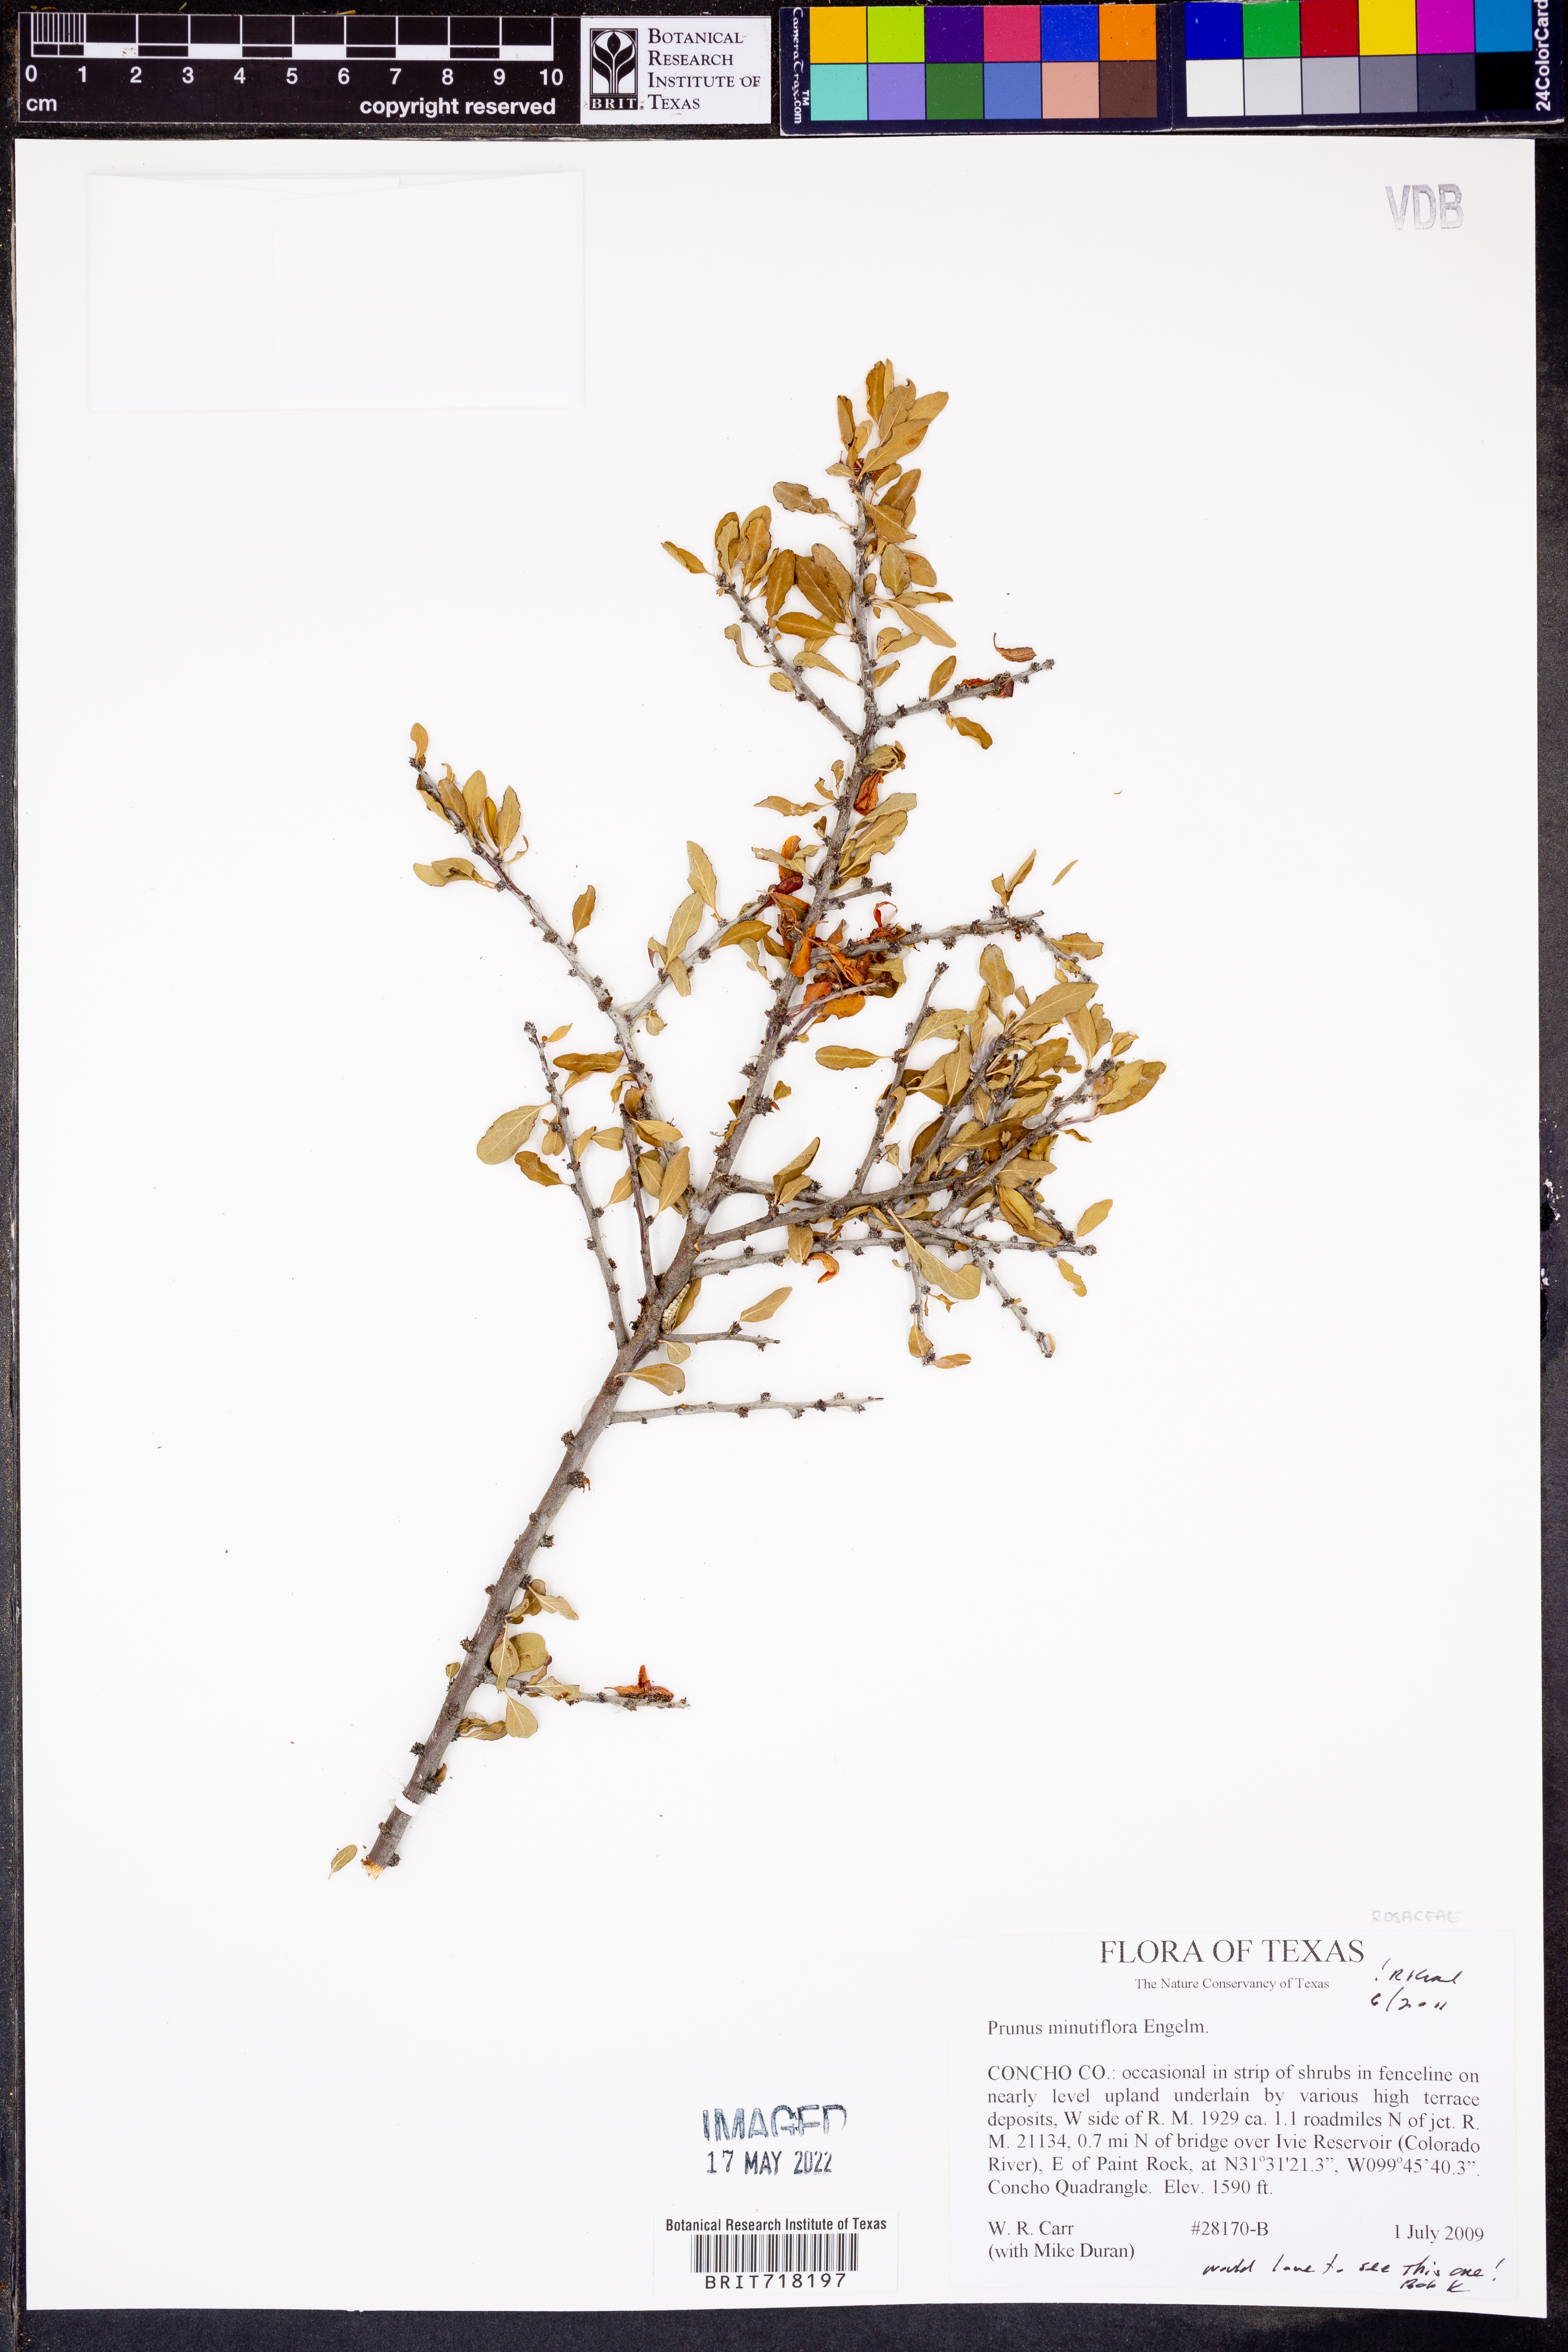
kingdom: Plantae
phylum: Tracheophyta
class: Magnoliopsida
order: Rosales
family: Rosaceae
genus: Prunus
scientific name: Prunus minutiflora
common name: Texas almond
